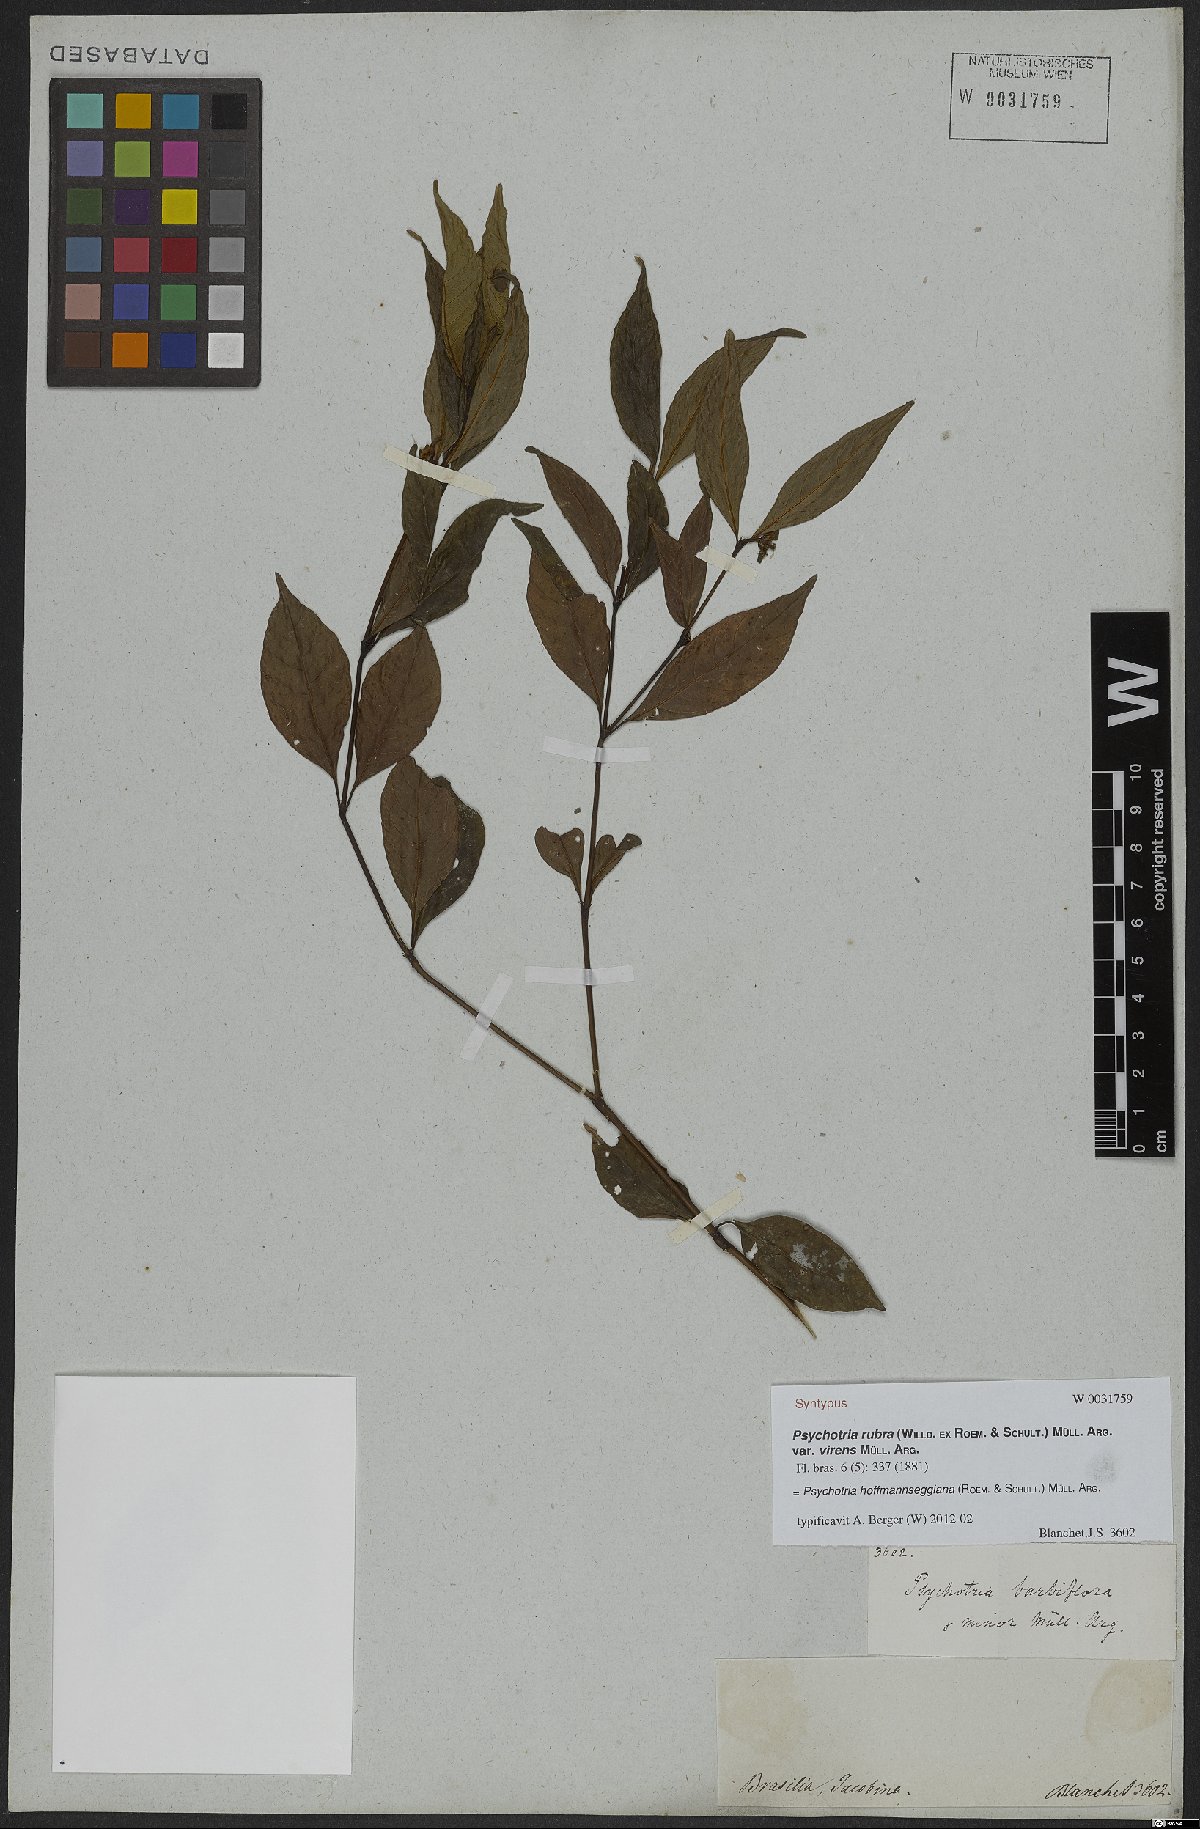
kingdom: Plantae
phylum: Tracheophyta
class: Magnoliopsida
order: Gentianales
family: Rubiaceae
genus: Palicourea
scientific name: Palicourea hoffmannseggiana
